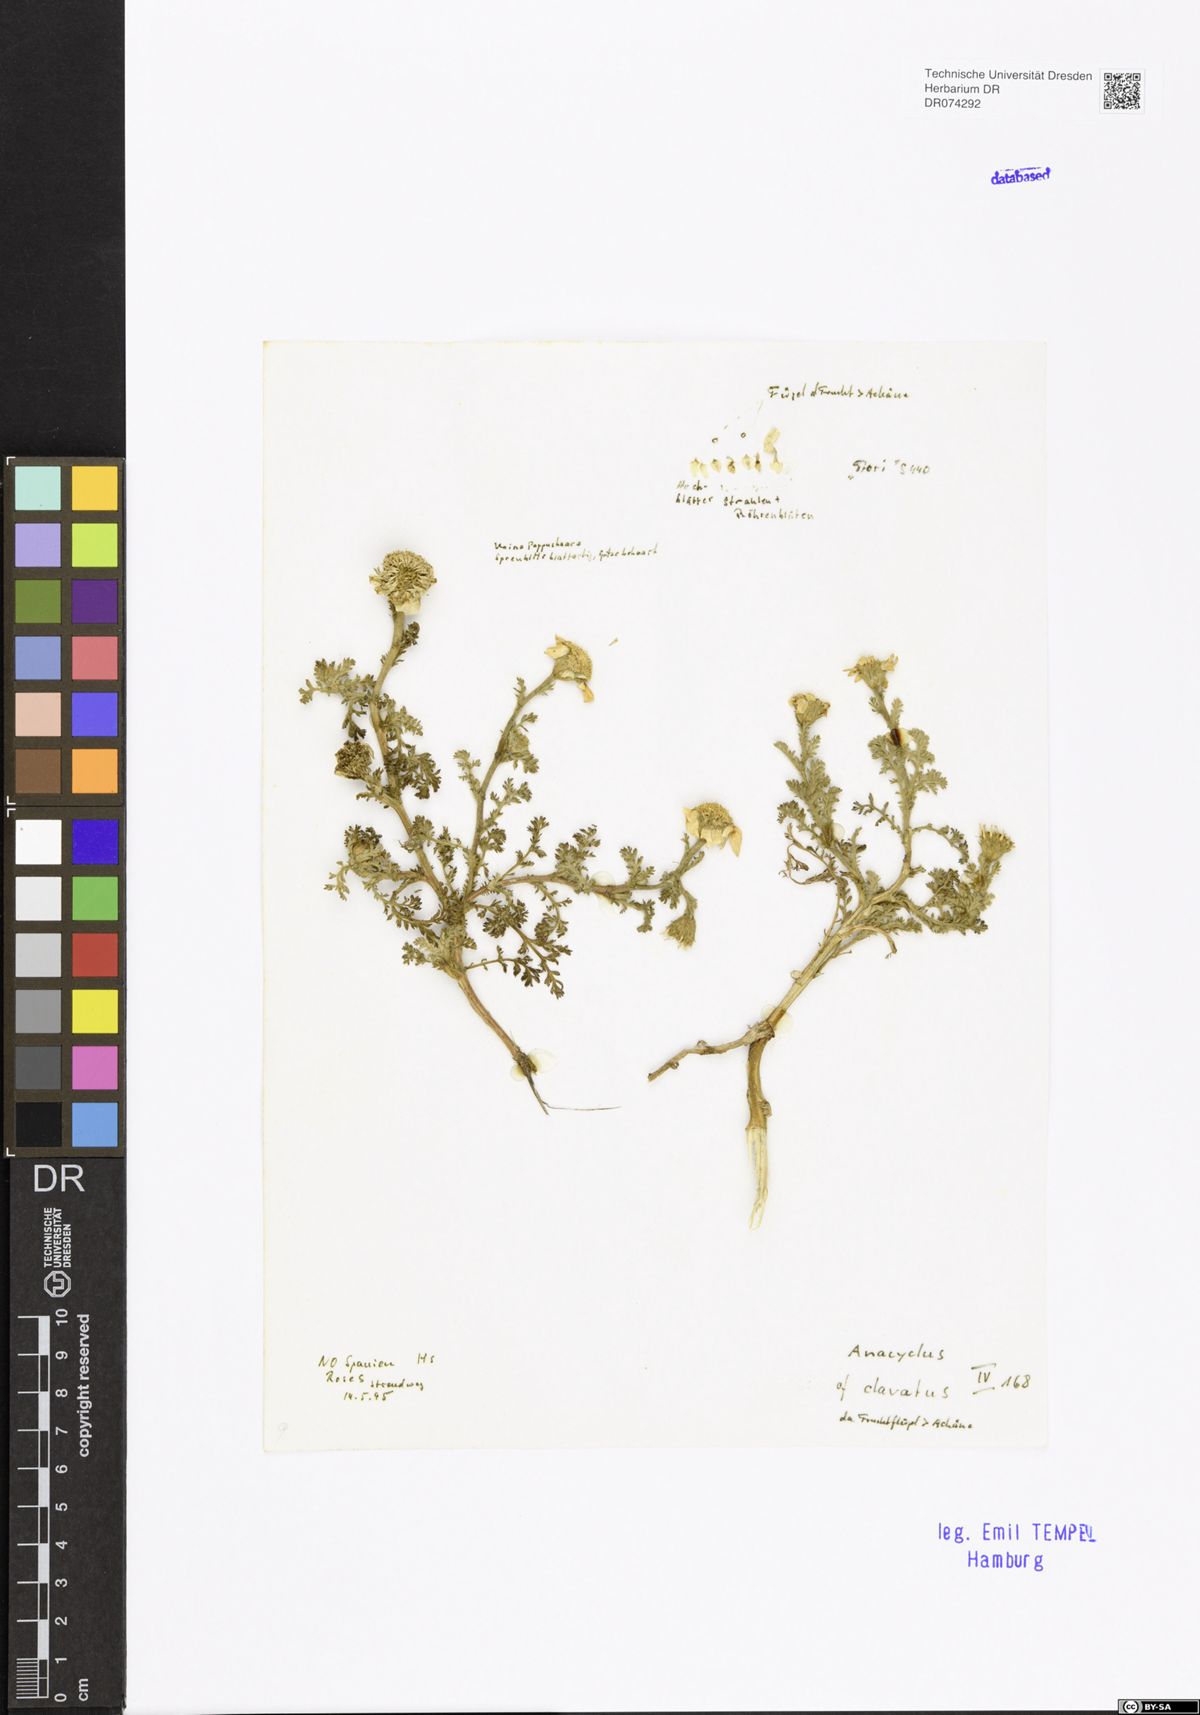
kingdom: Plantae
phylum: Tracheophyta
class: Magnoliopsida
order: Asterales
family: Asteraceae
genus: Anacyclus
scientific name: Anacyclus clavatus
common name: Whitebuttons
